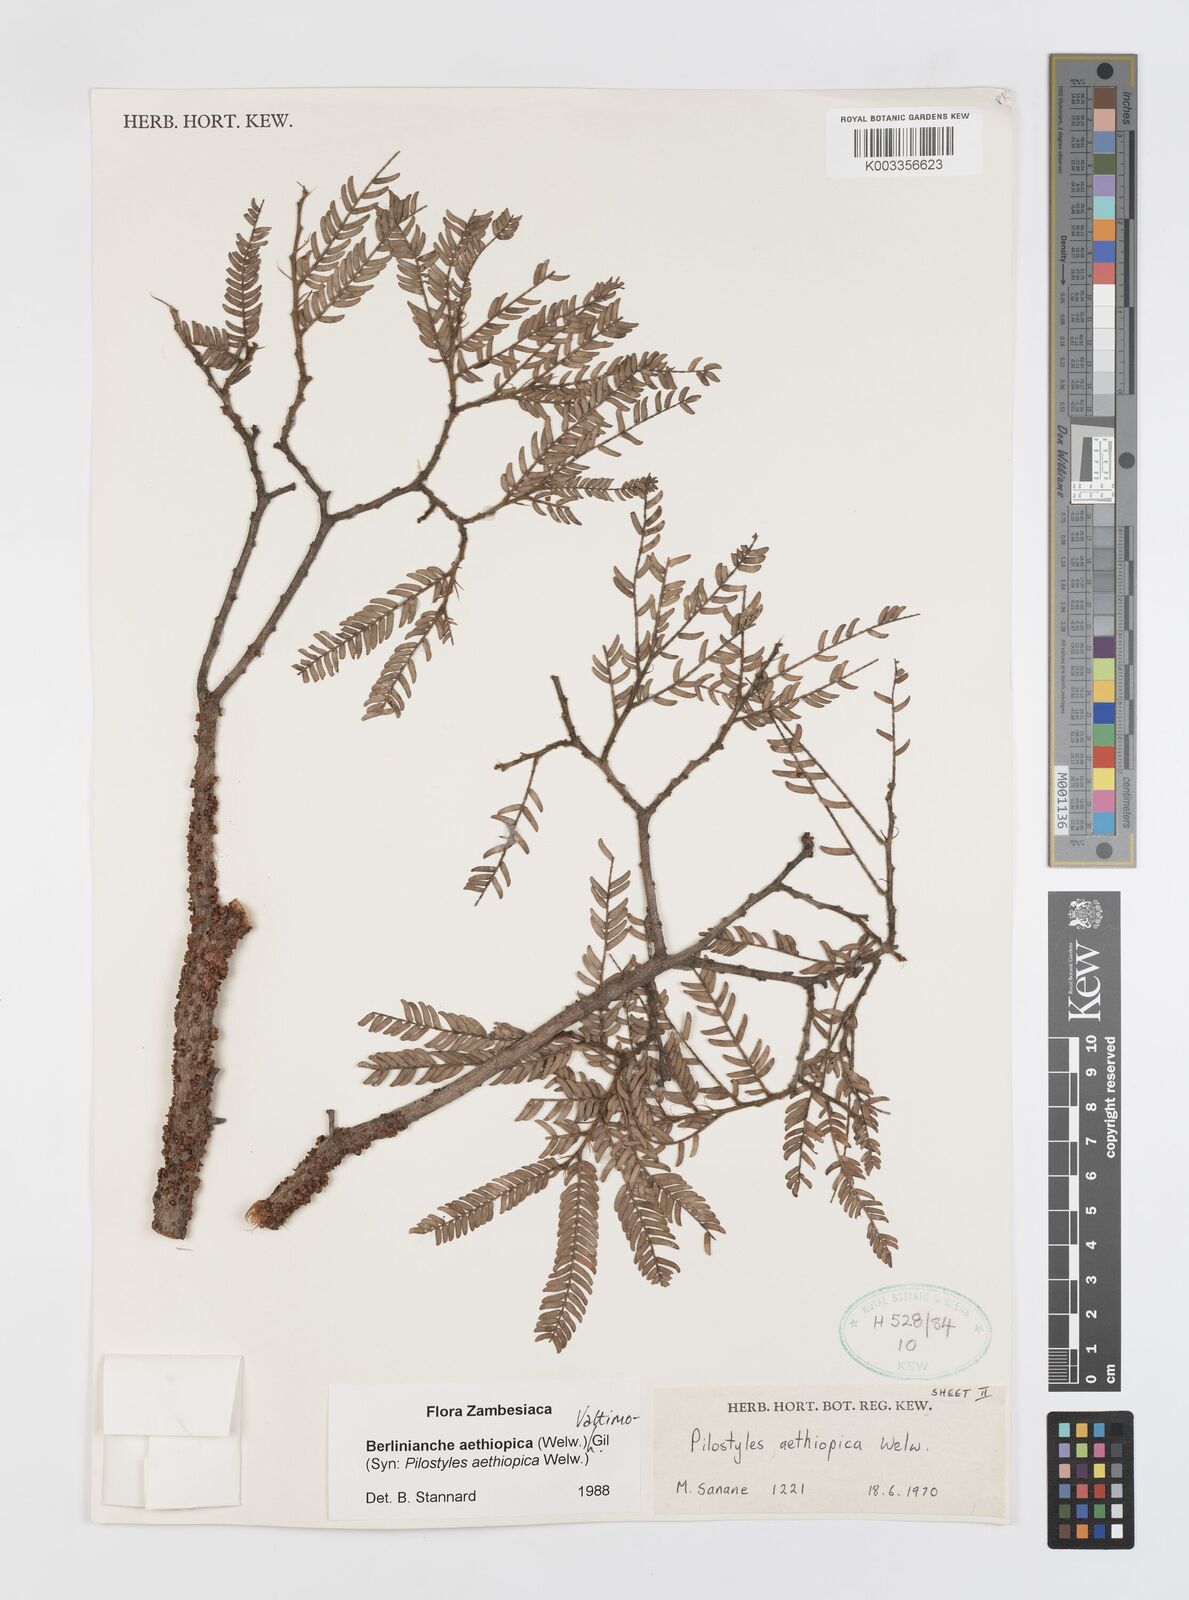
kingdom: Plantae
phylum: Tracheophyta
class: Magnoliopsida
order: Cucurbitales
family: Apodanthaceae
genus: Pilostyles
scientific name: Pilostyles aethiopica
